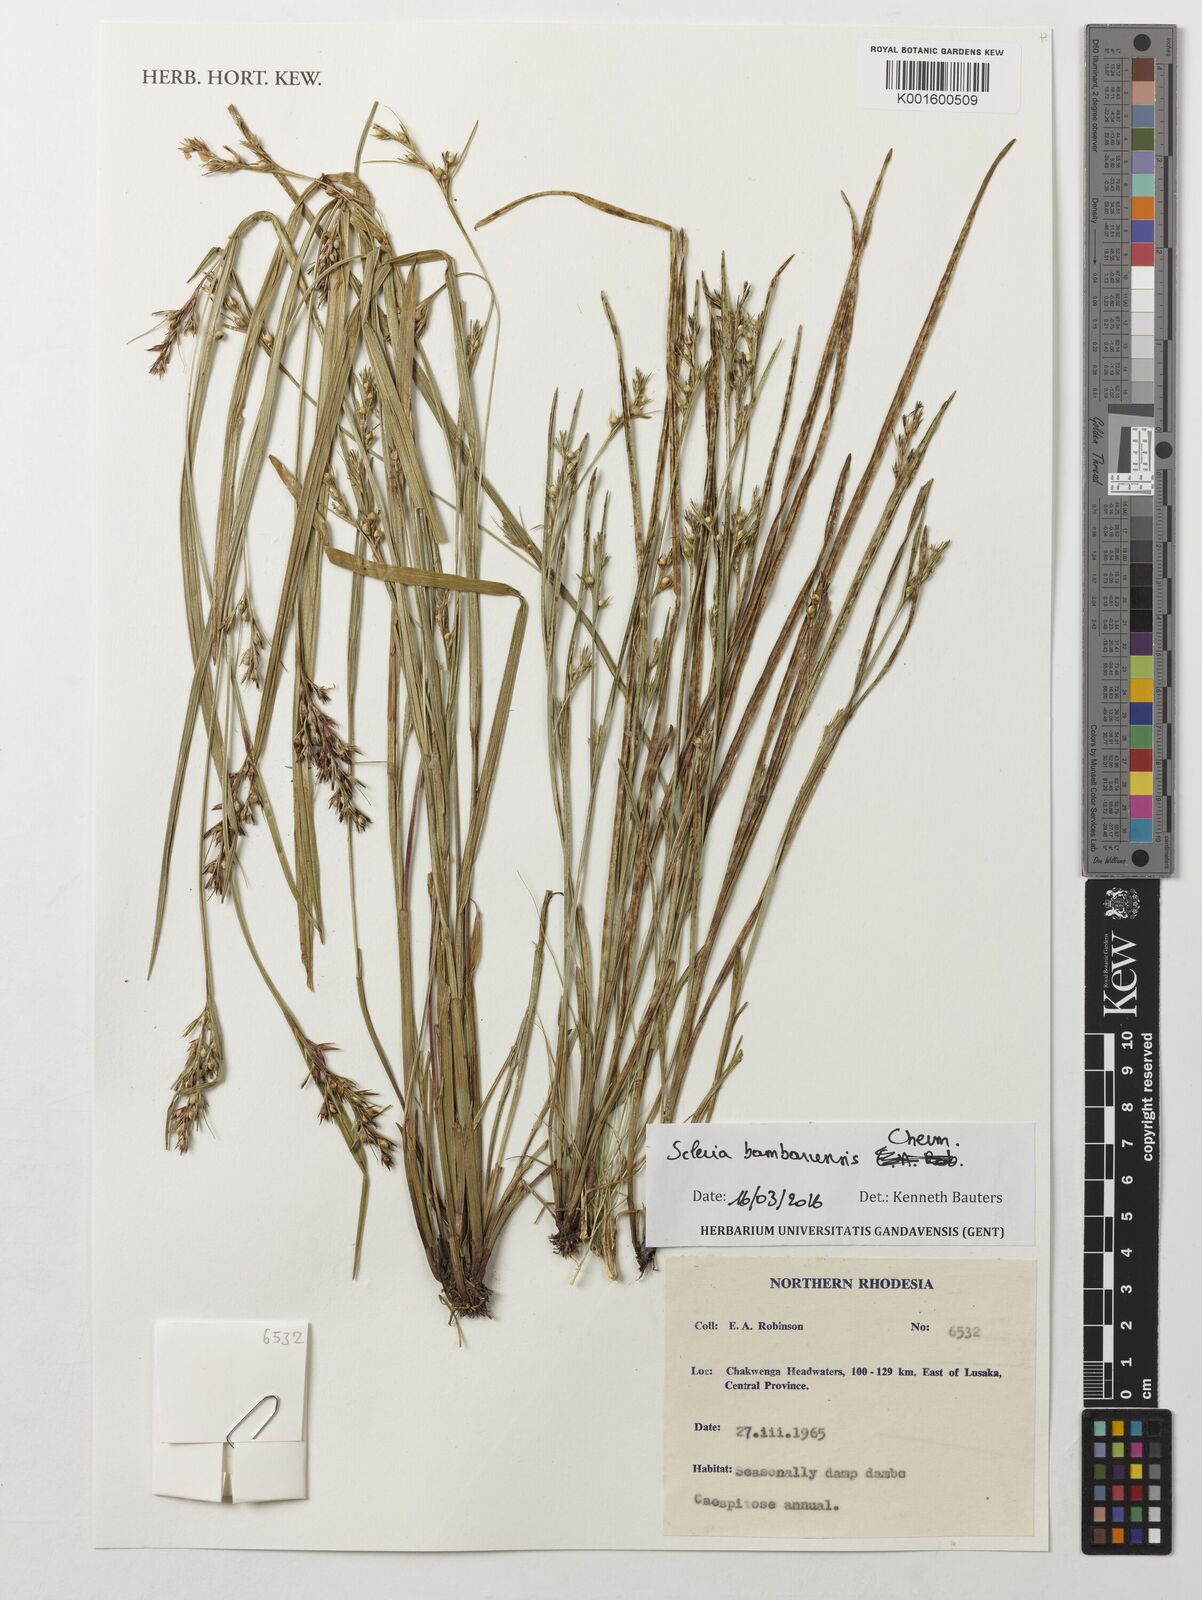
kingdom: Plantae
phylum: Tracheophyta
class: Liliopsida
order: Poales
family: Cyperaceae
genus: Scleria
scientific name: Scleria bambariensis
